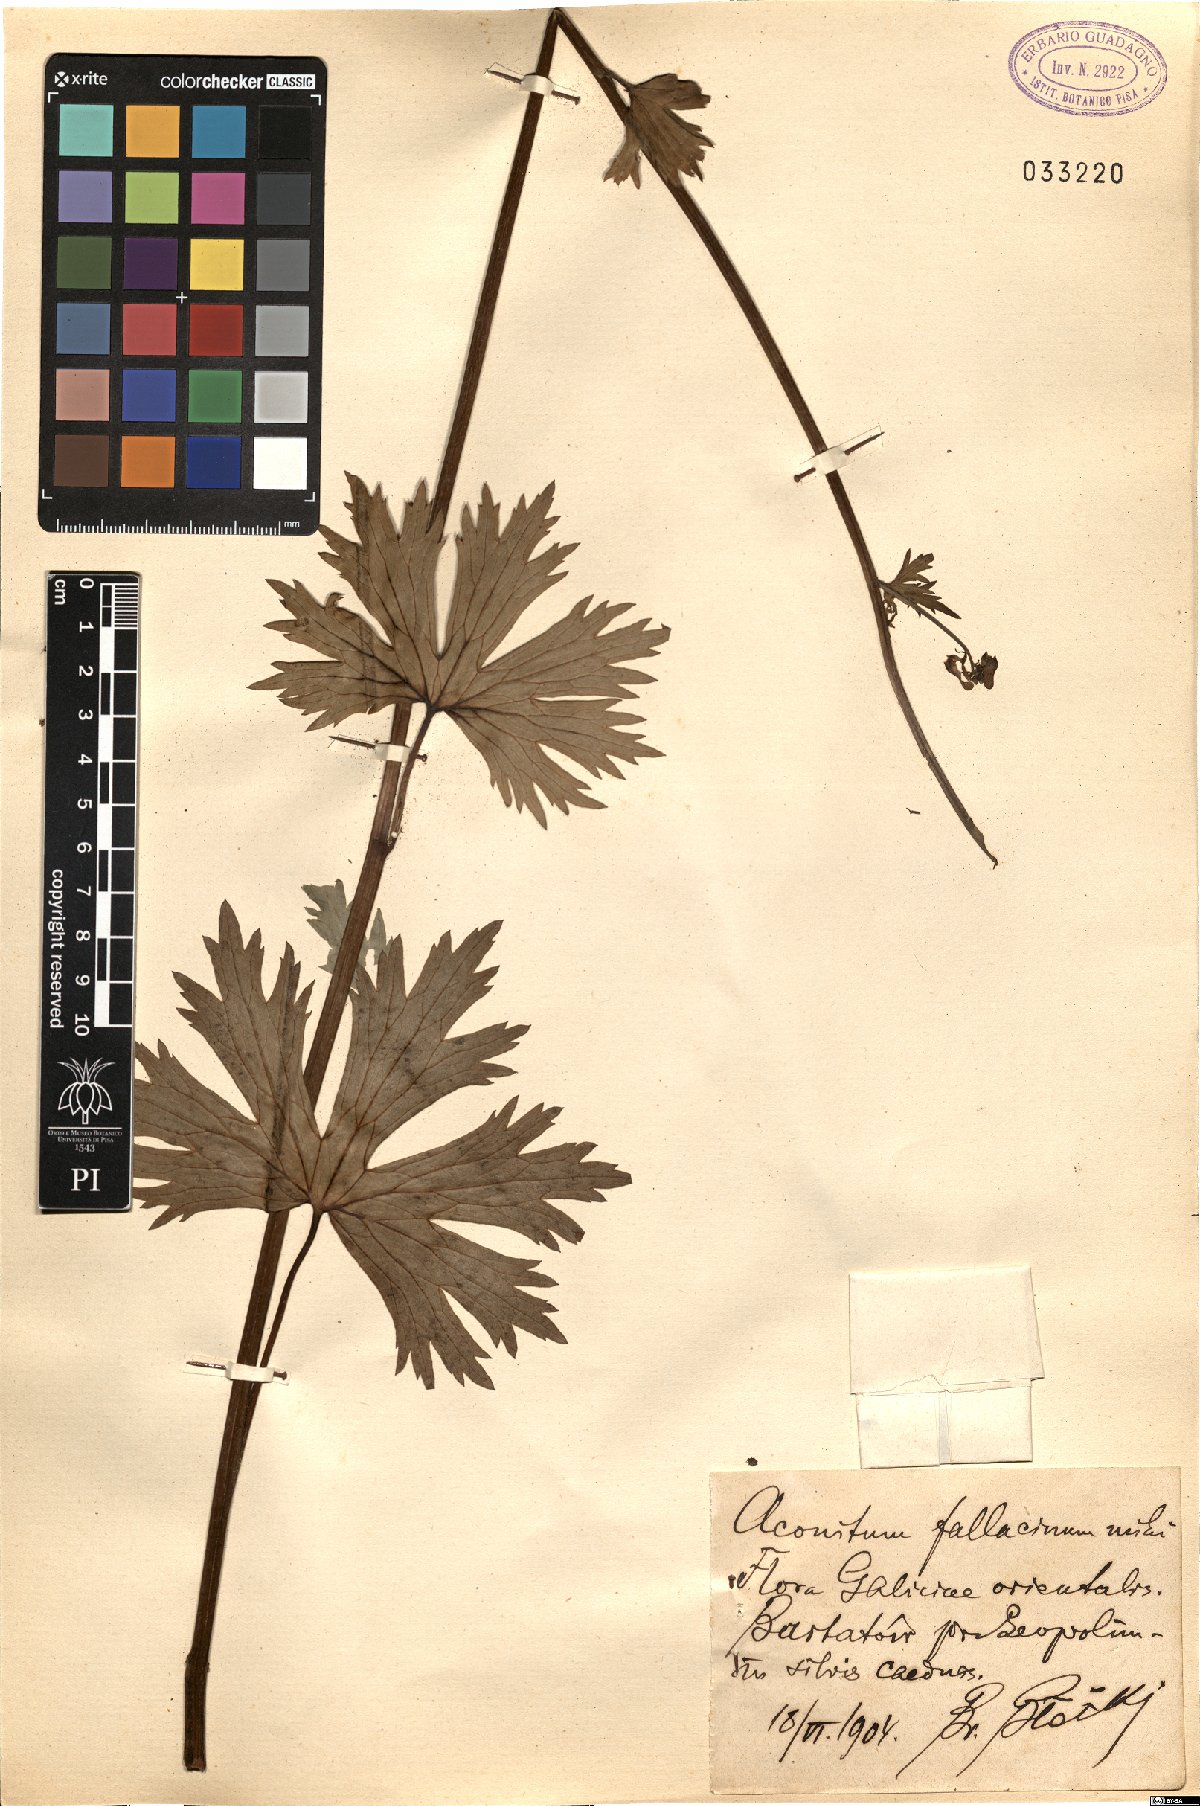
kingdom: Plantae
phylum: Tracheophyta
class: Magnoliopsida
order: Ranunculales
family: Ranunculaceae
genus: Aconitum
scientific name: Aconitum fallacinum
